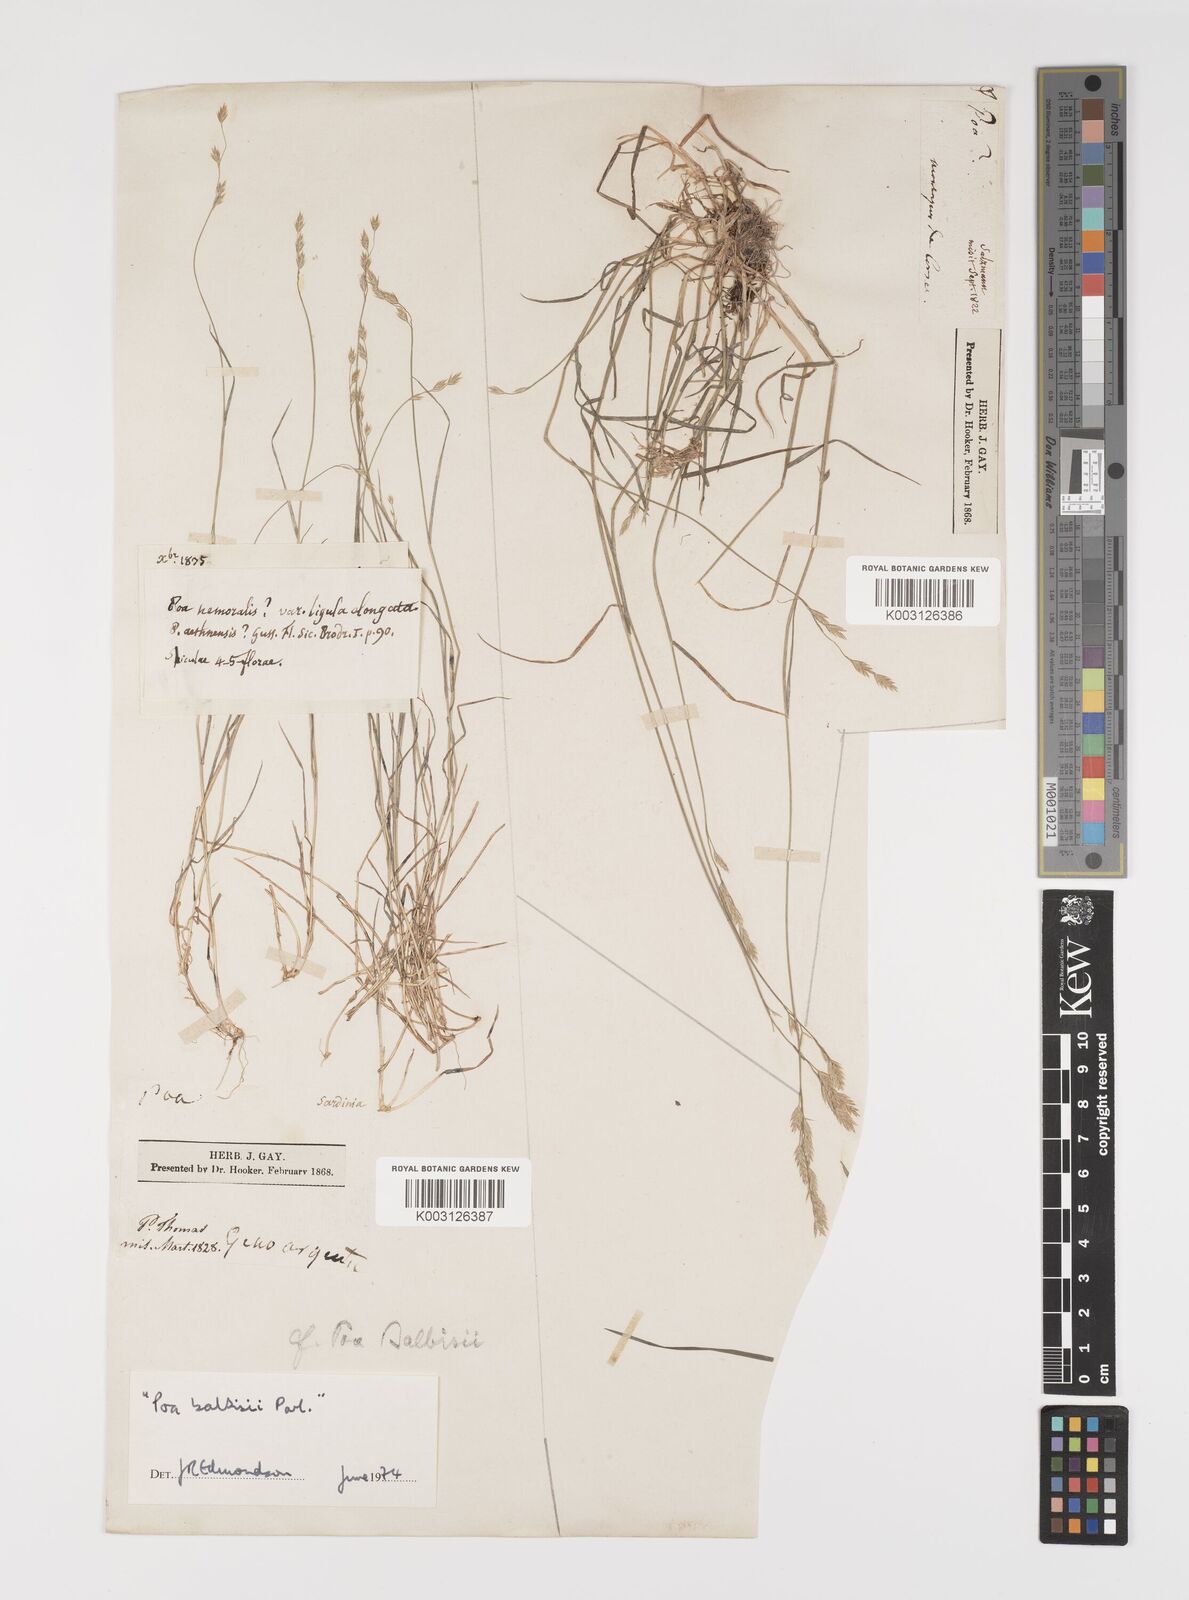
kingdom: Plantae
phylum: Tracheophyta
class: Liliopsida
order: Poales
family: Poaceae
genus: Poa
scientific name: Poa glauca
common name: Glaucous bluegrass
